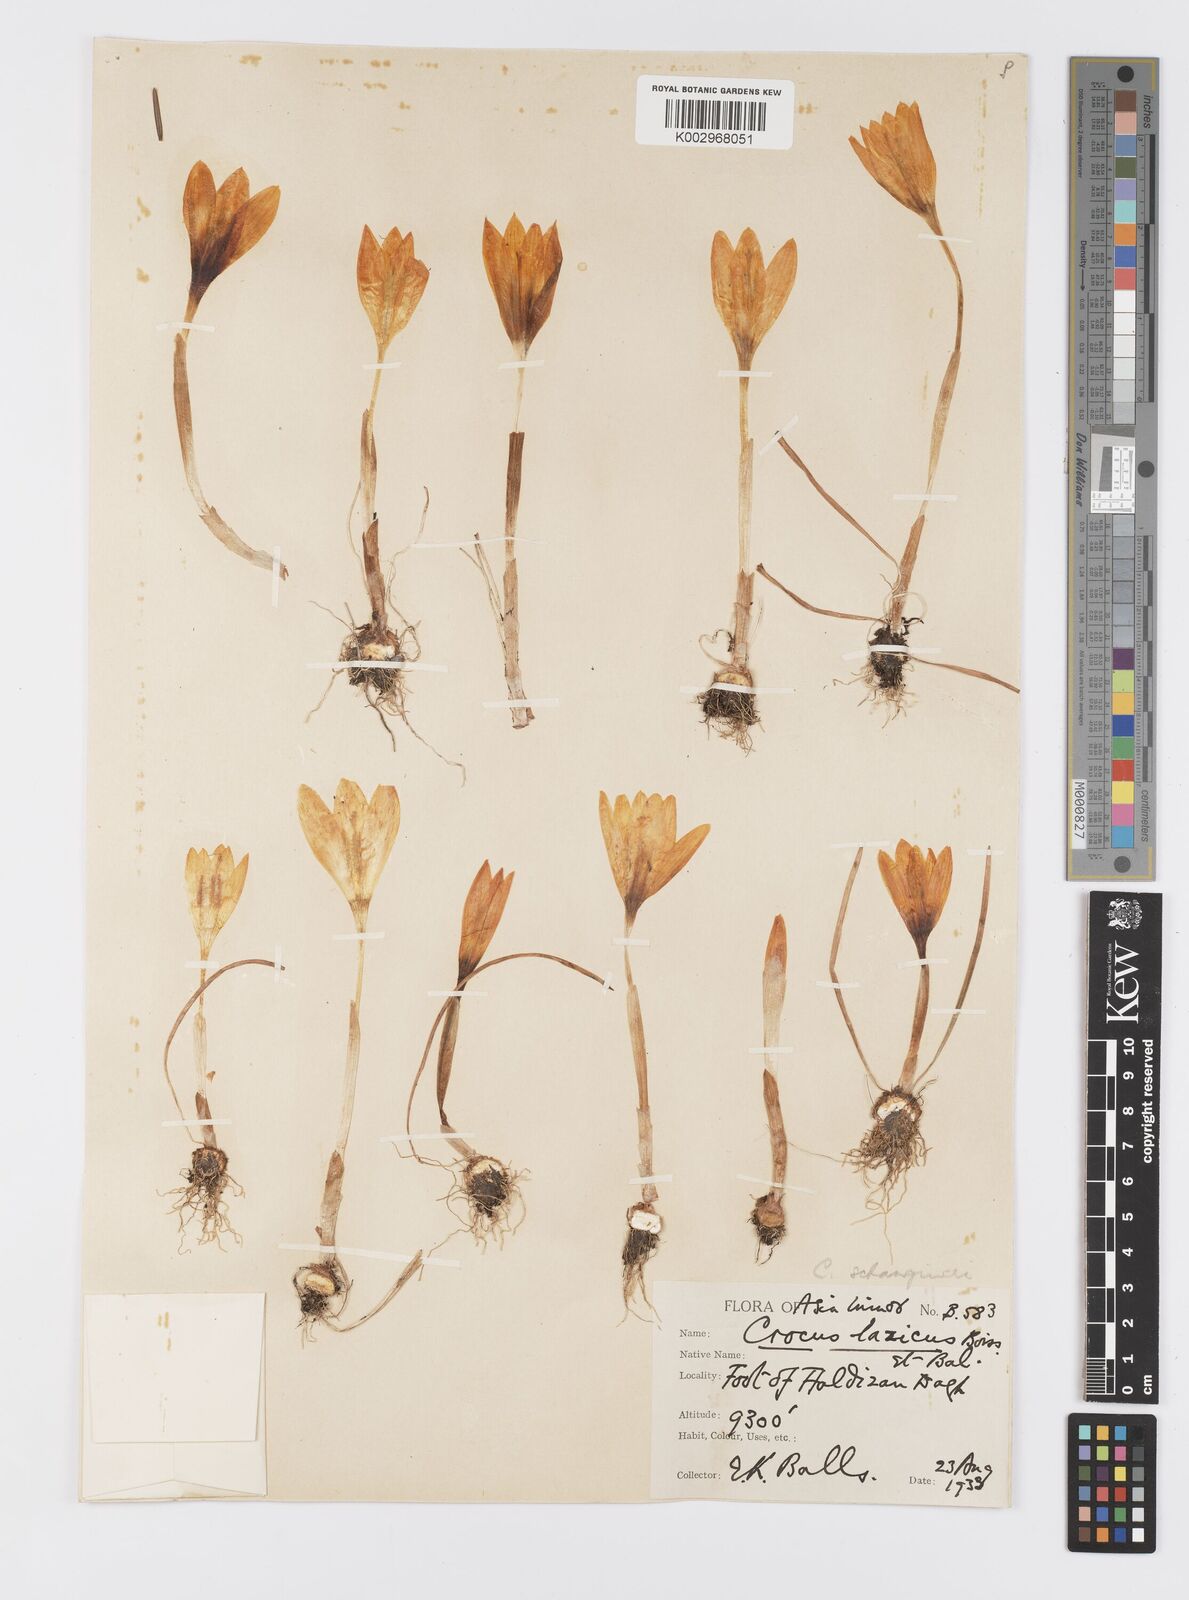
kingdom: Plantae
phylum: Tracheophyta
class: Liliopsida
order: Asparagales
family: Iridaceae
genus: Crocus
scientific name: Crocus lazicus
